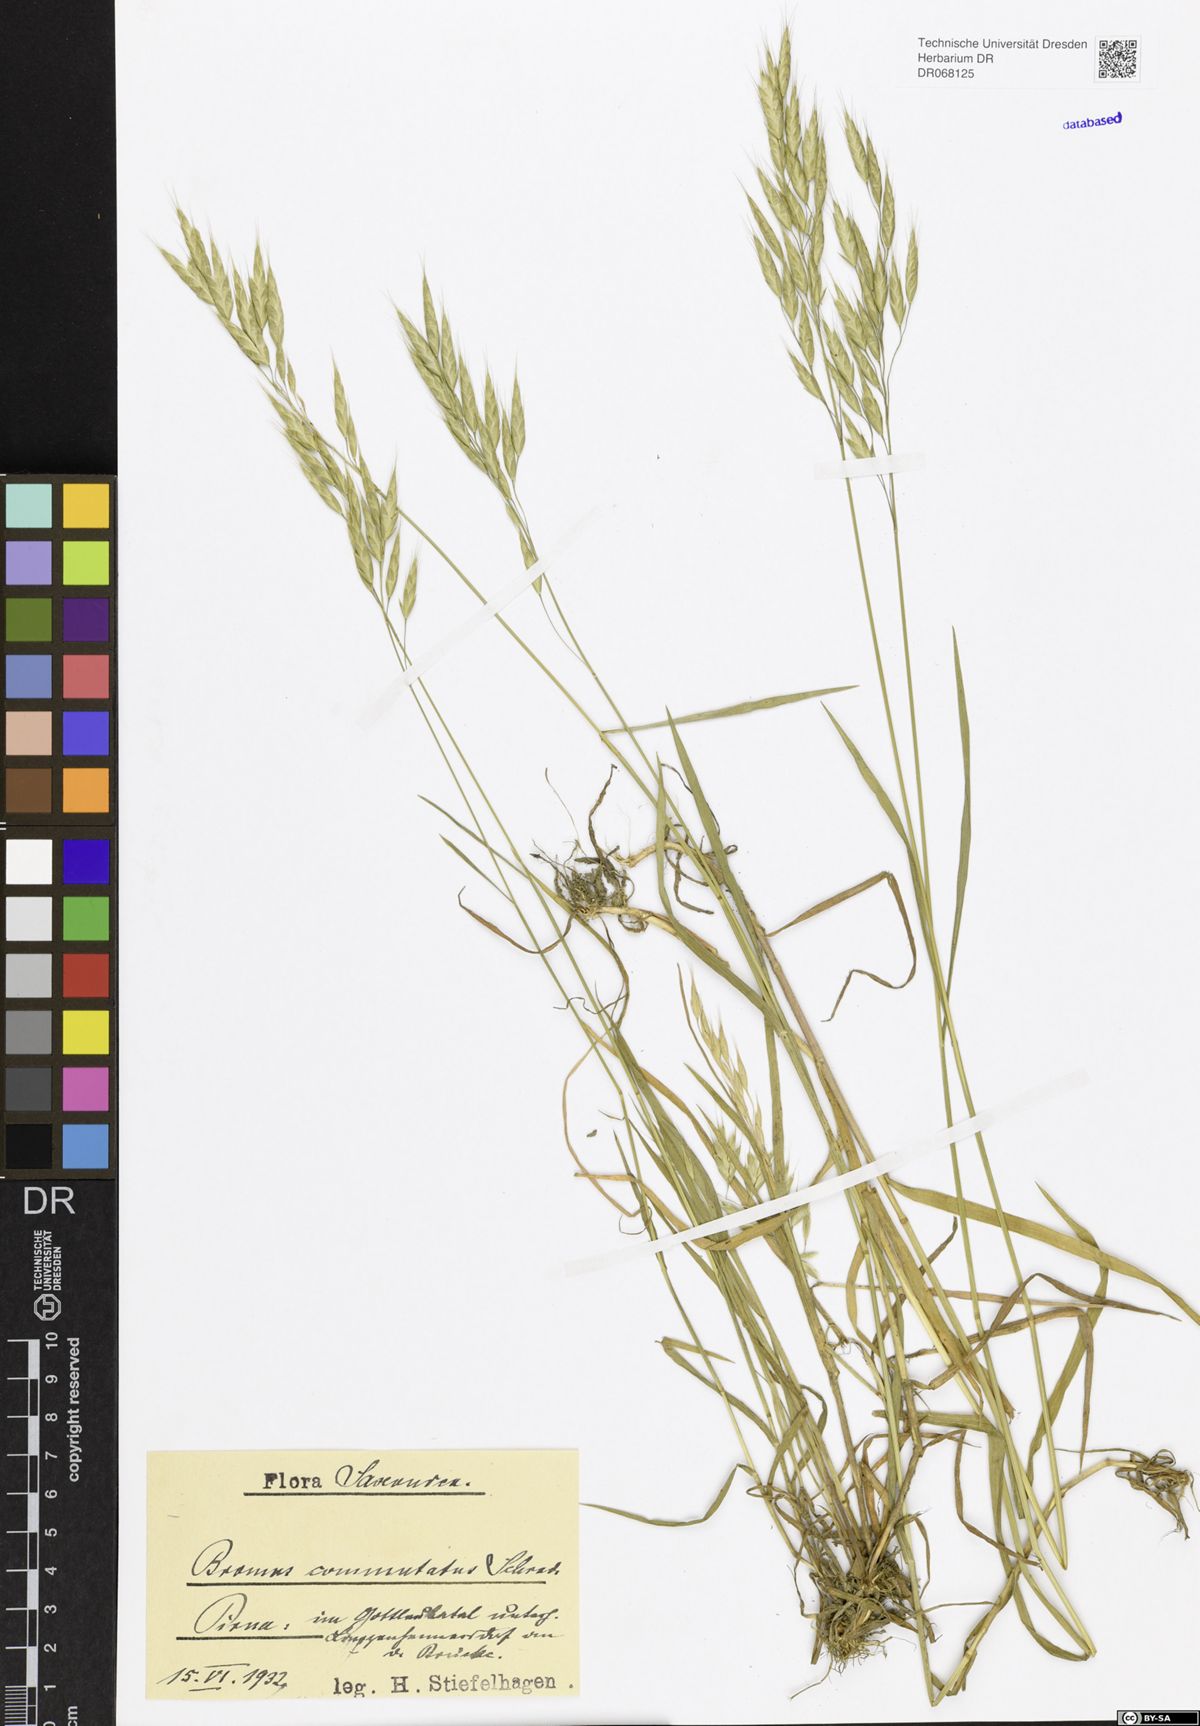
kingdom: Plantae
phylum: Tracheophyta
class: Liliopsida
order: Poales
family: Poaceae
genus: Bromus
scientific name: Bromus commutatus
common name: Meadow brome
